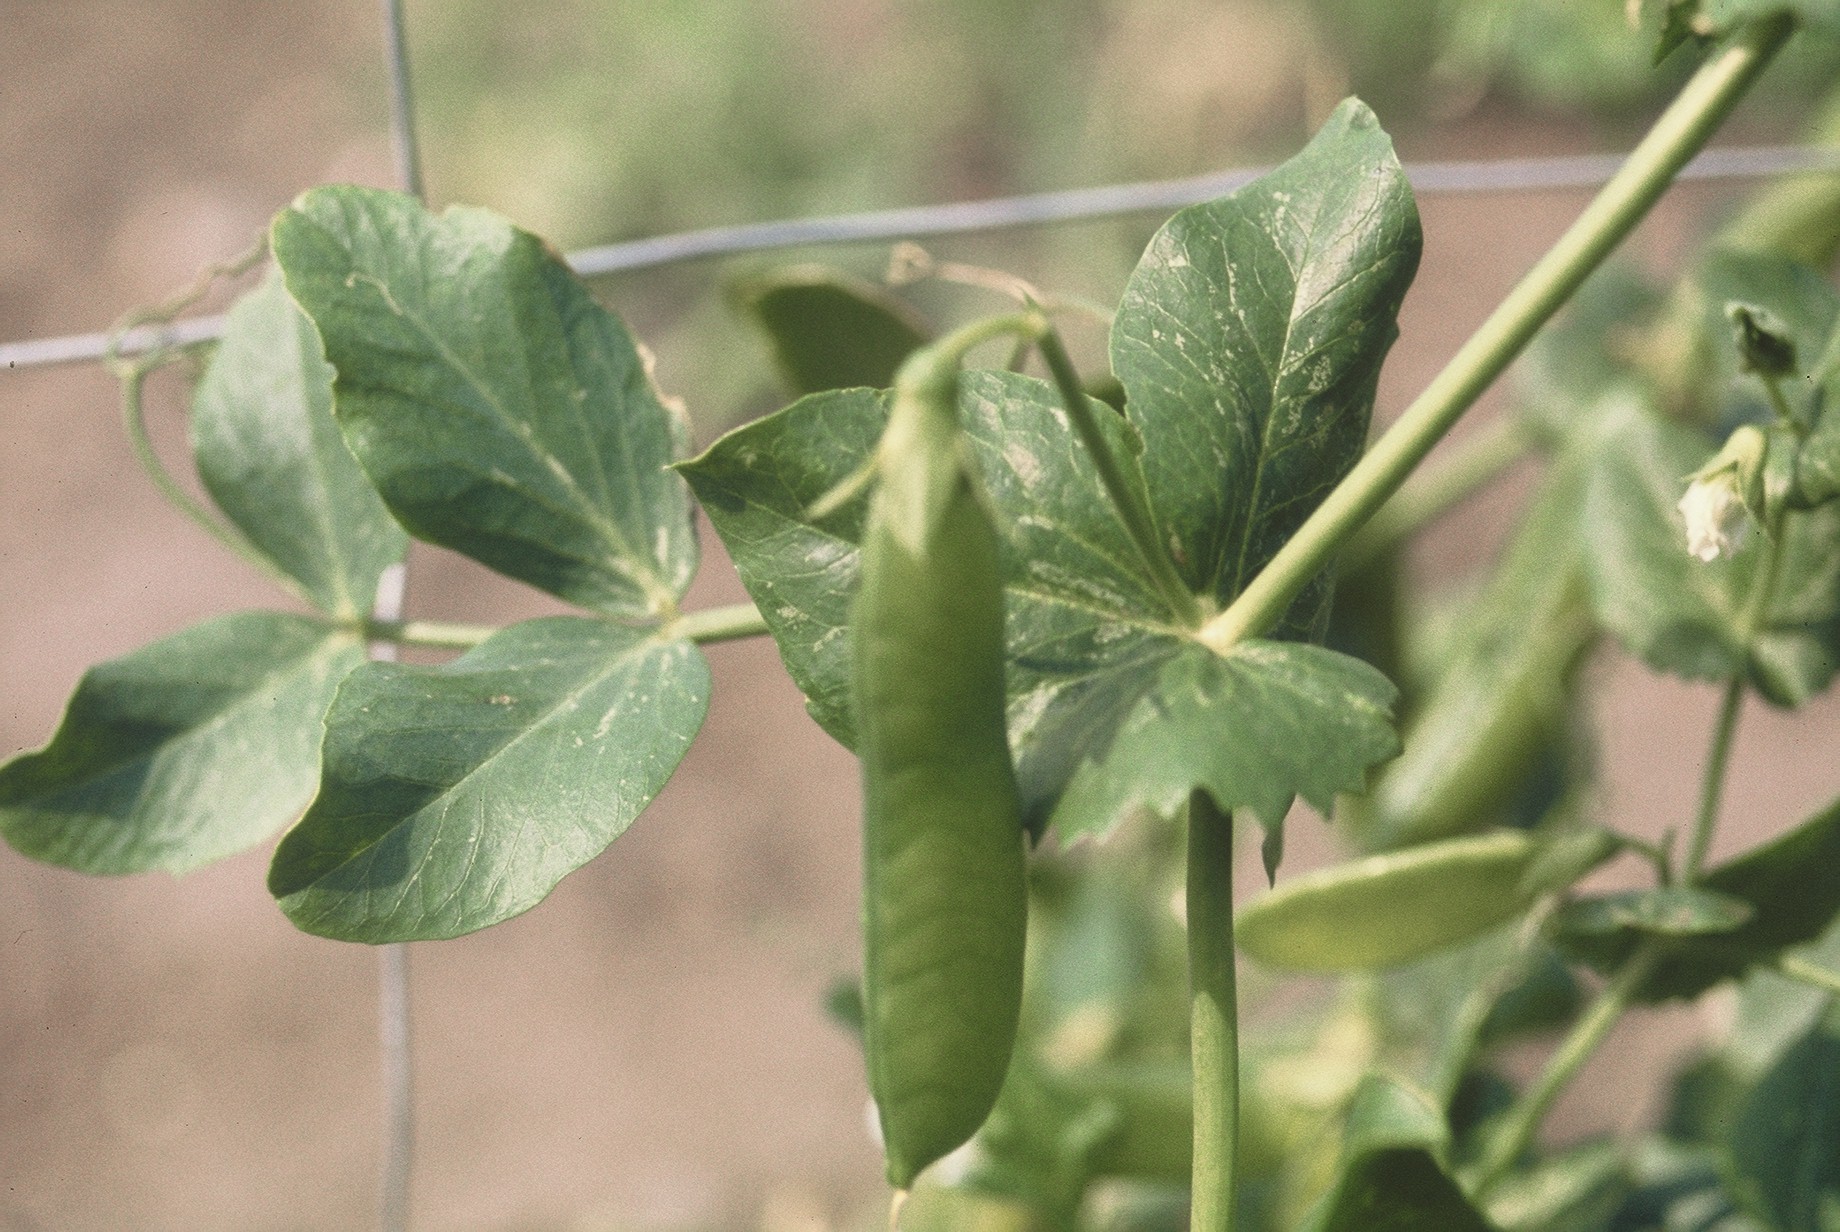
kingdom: Plantae
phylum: Tracheophyta
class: Magnoliopsida
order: Fabales
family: Fabaceae
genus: Lathyrus
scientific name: Lathyrus oleraceus
